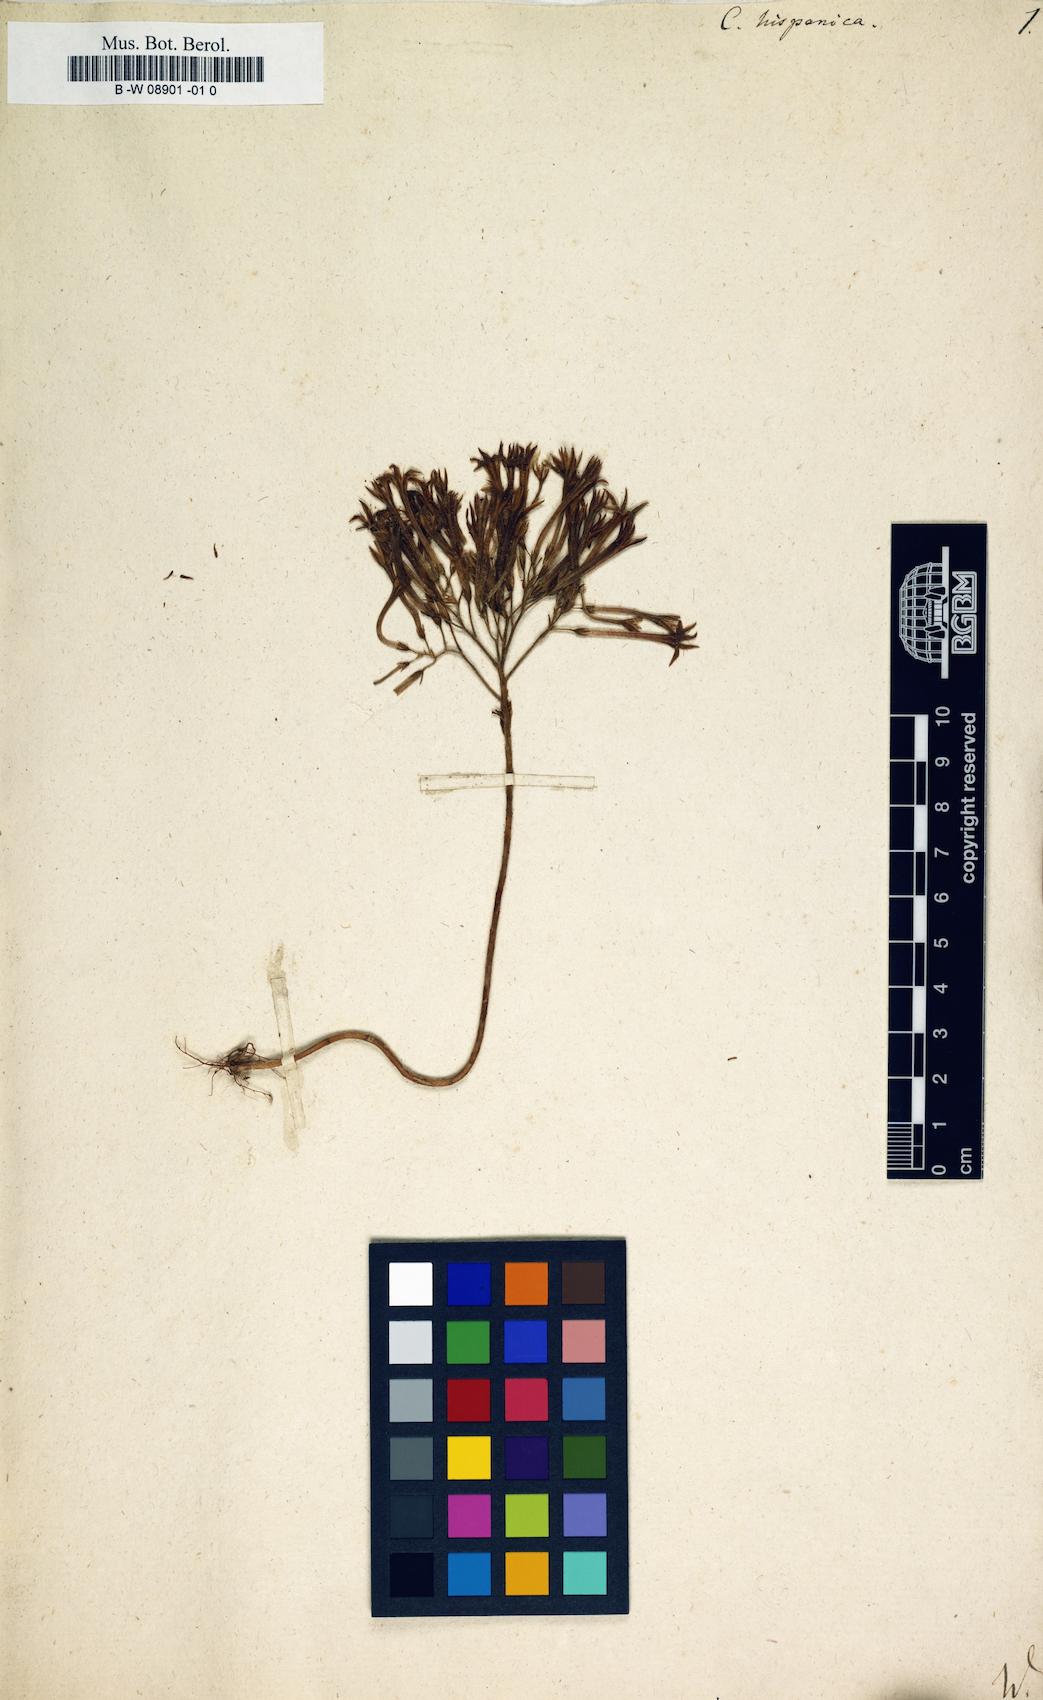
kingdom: Plantae
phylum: Tracheophyta
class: Magnoliopsida
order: Saxifragales
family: Crassulaceae
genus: Pistorinia
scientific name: Pistorinia
